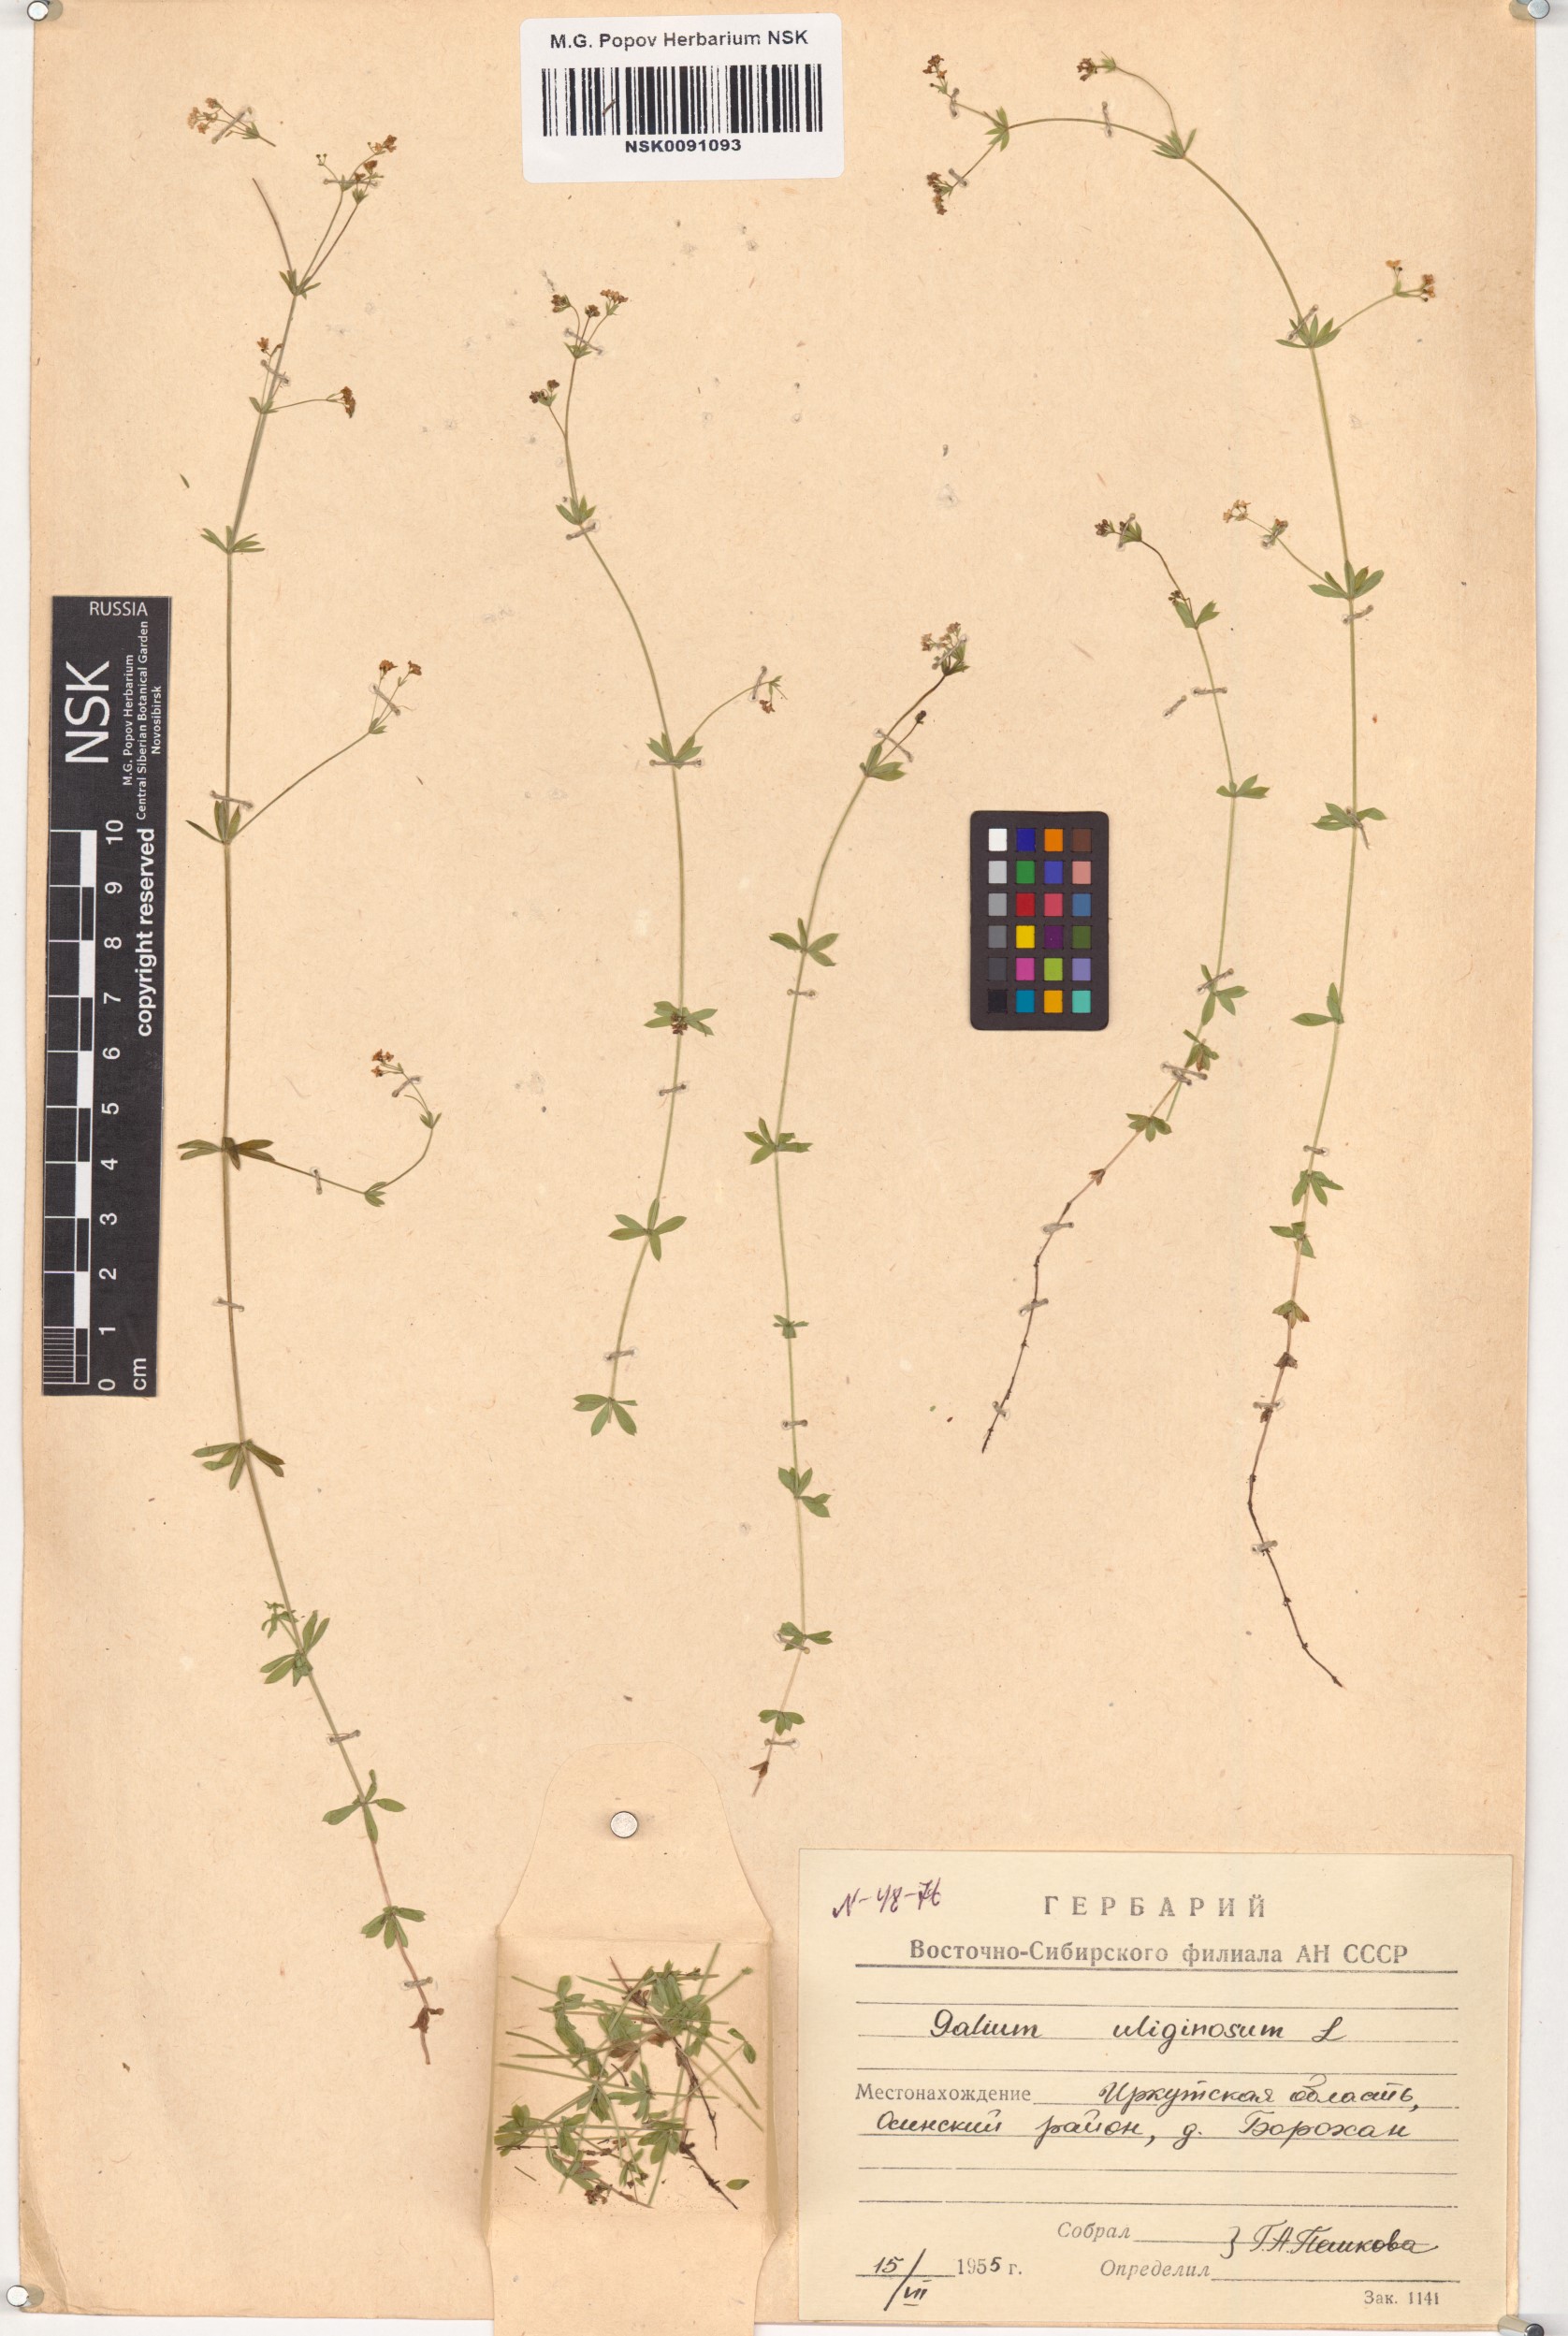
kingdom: Plantae
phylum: Tracheophyta
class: Magnoliopsida
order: Gentianales
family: Rubiaceae
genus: Galium
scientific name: Galium uliginosum
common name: Fen bedstraw
